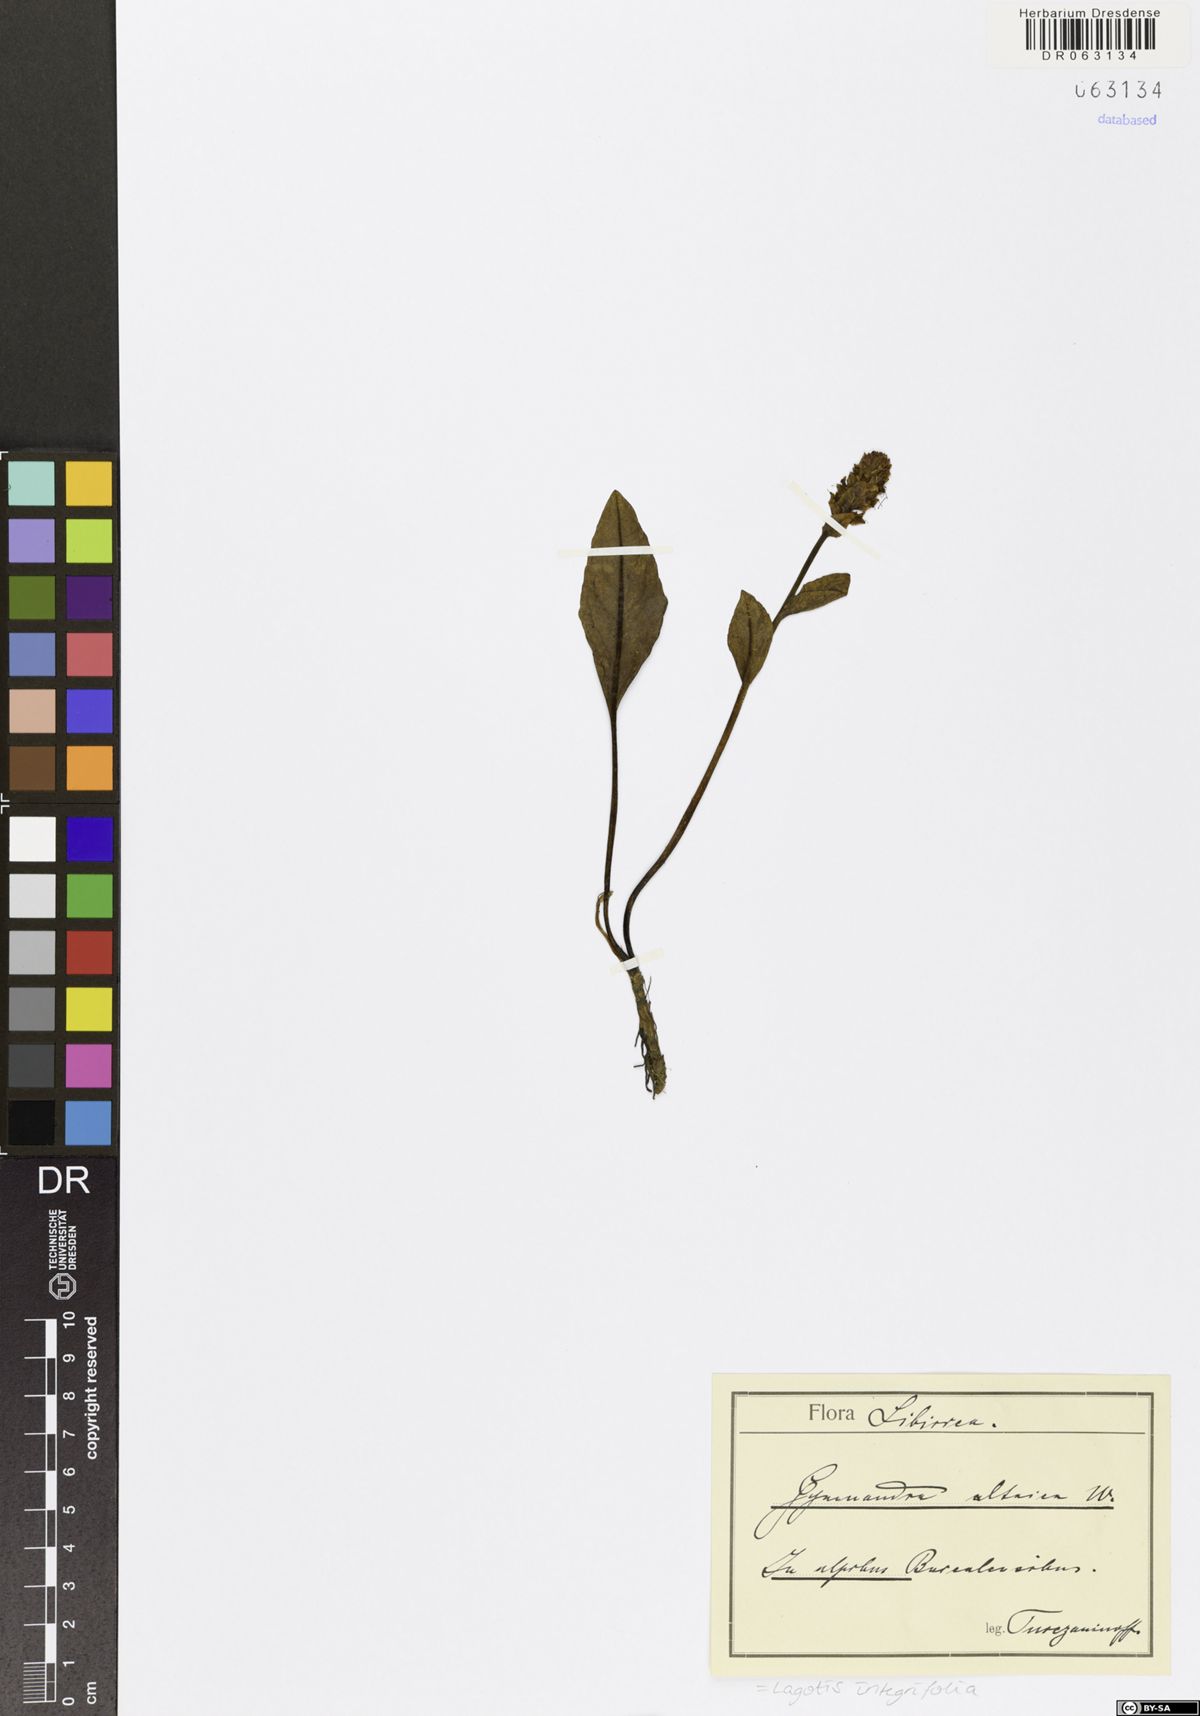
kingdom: Plantae
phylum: Tracheophyta
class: Magnoliopsida
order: Lamiales
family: Plantaginaceae
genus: Lagotis
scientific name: Lagotis integrifolia
